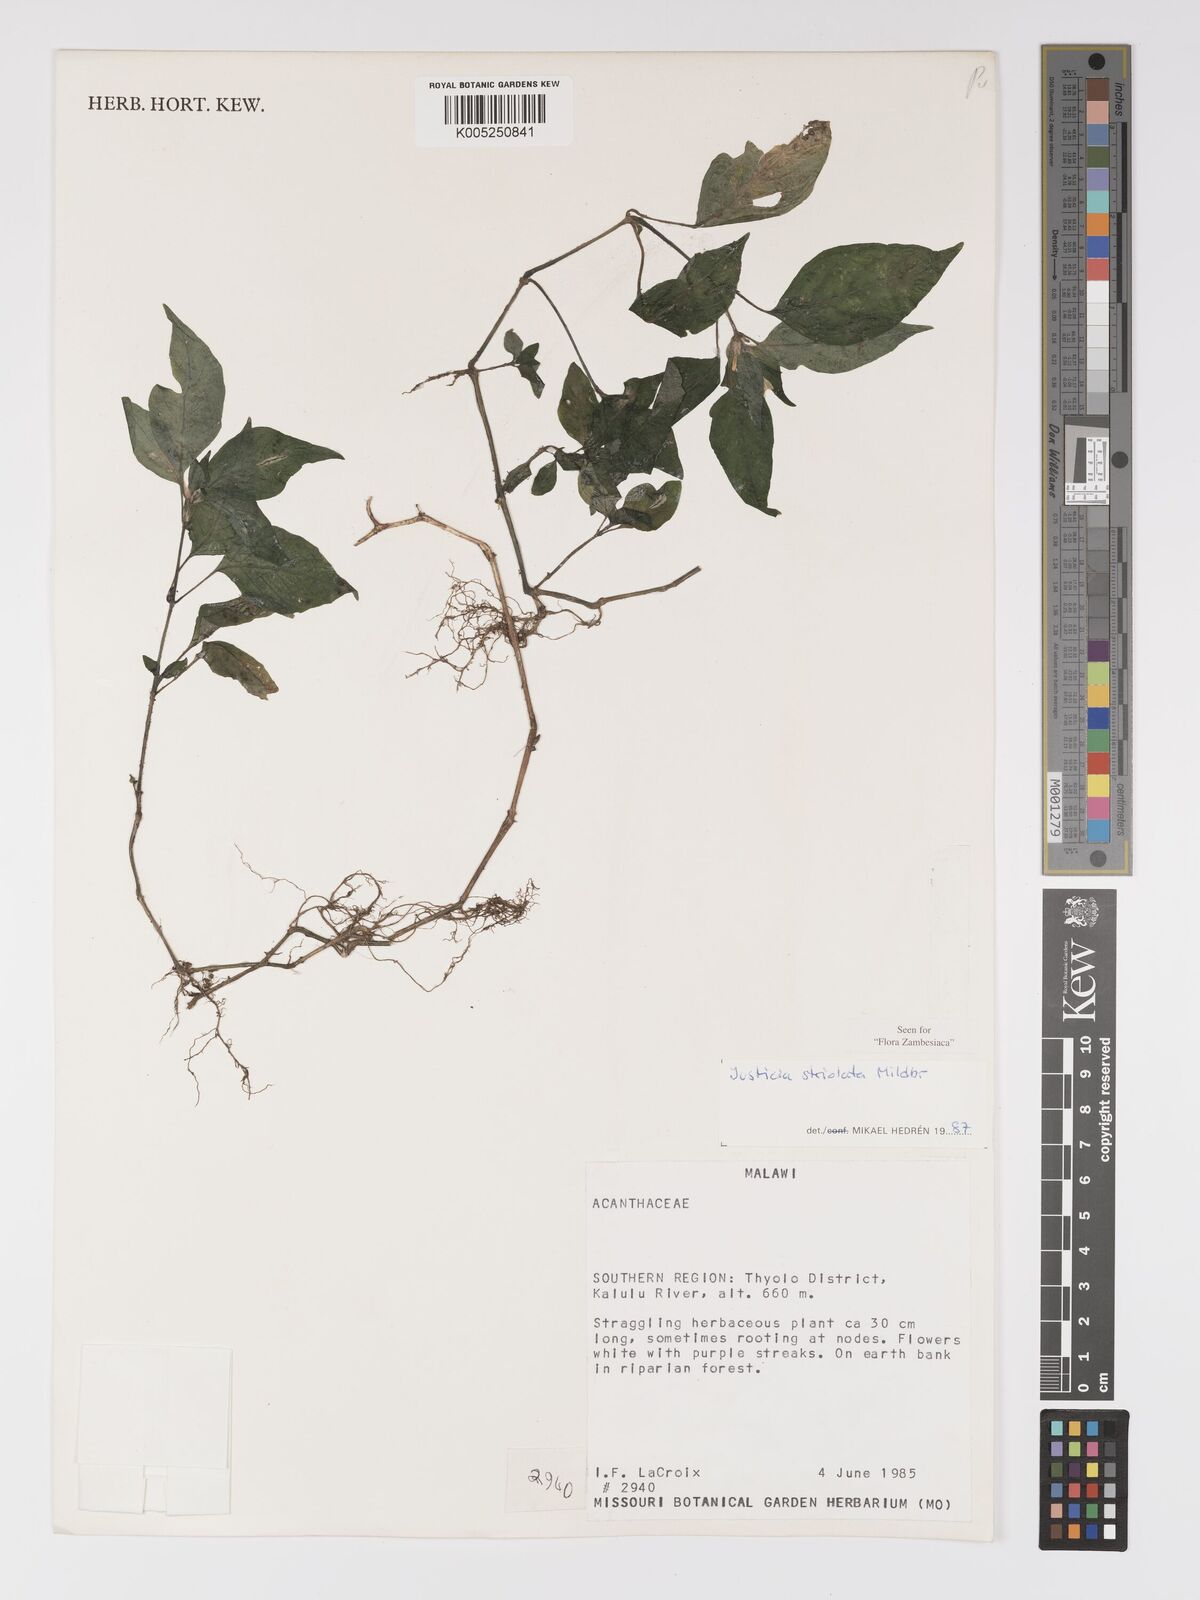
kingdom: Plantae
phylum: Tracheophyta
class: Magnoliopsida
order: Lamiales
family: Acanthaceae
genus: Justicia
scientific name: Justicia striolata
